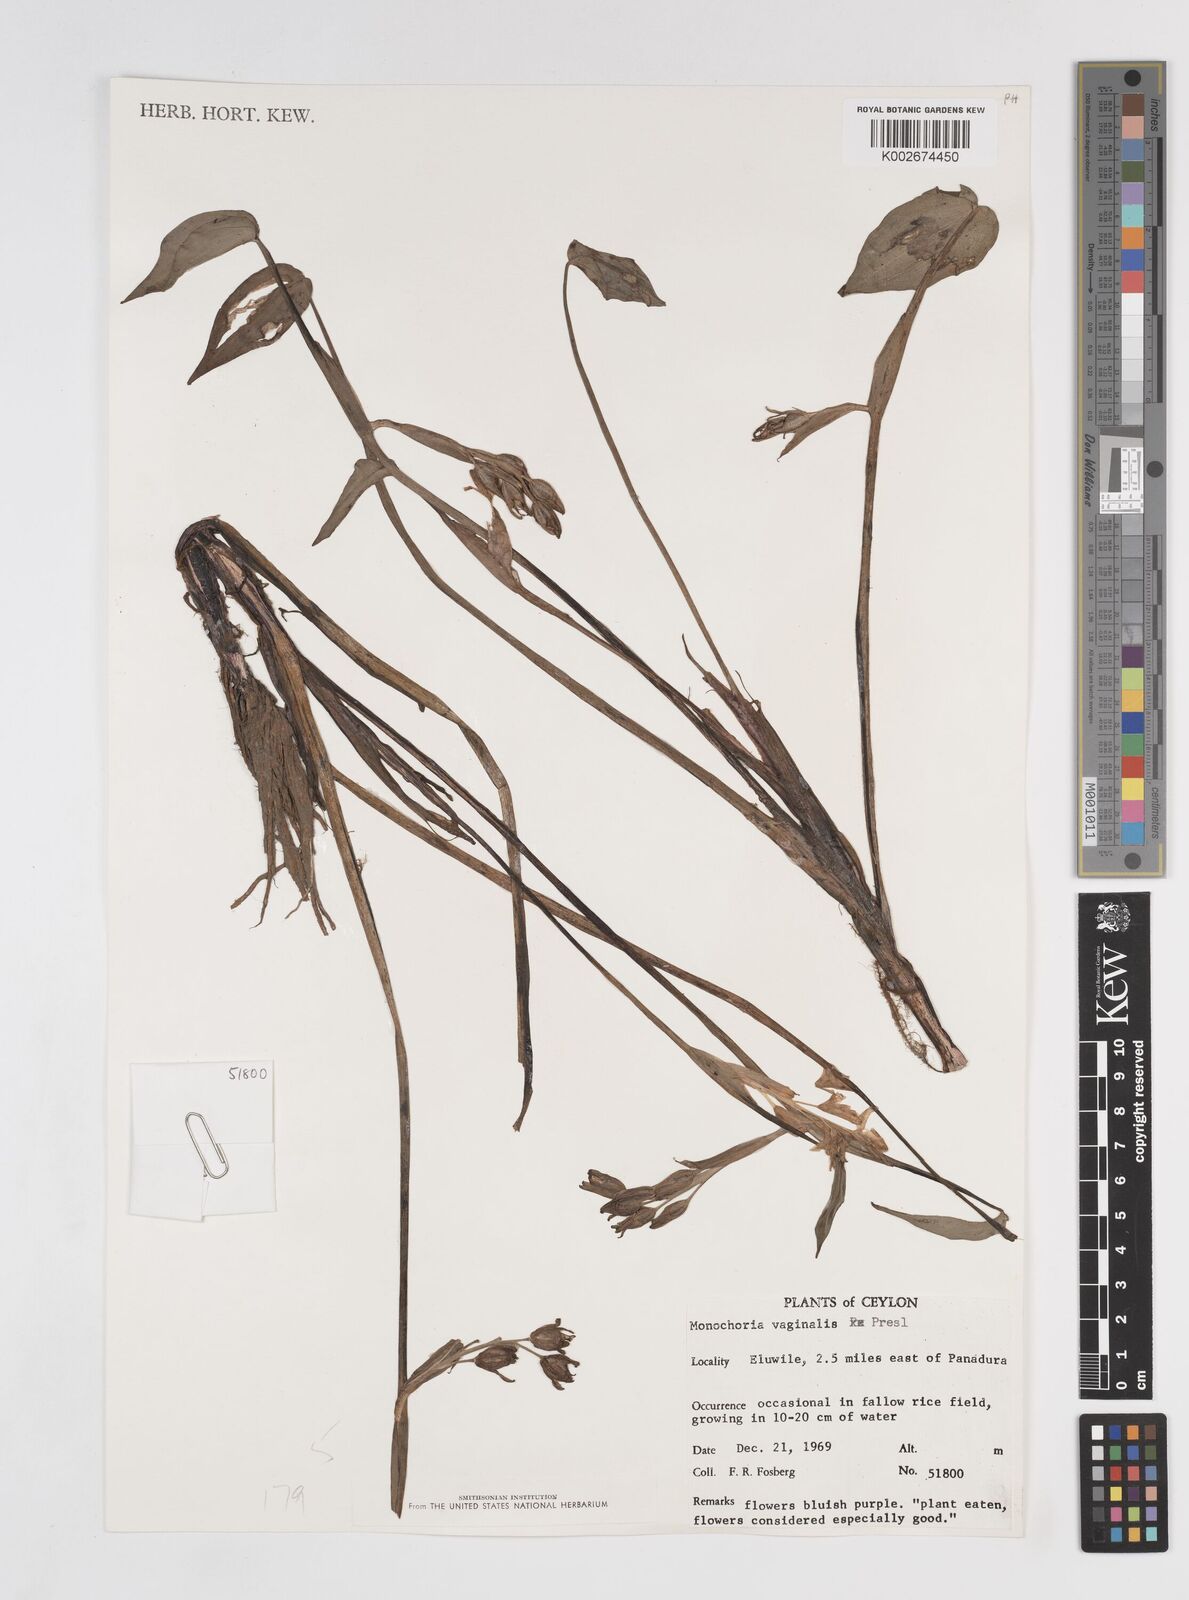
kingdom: Plantae
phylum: Tracheophyta
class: Liliopsida
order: Commelinales
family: Pontederiaceae
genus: Pontederia
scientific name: Pontederia vaginalis
